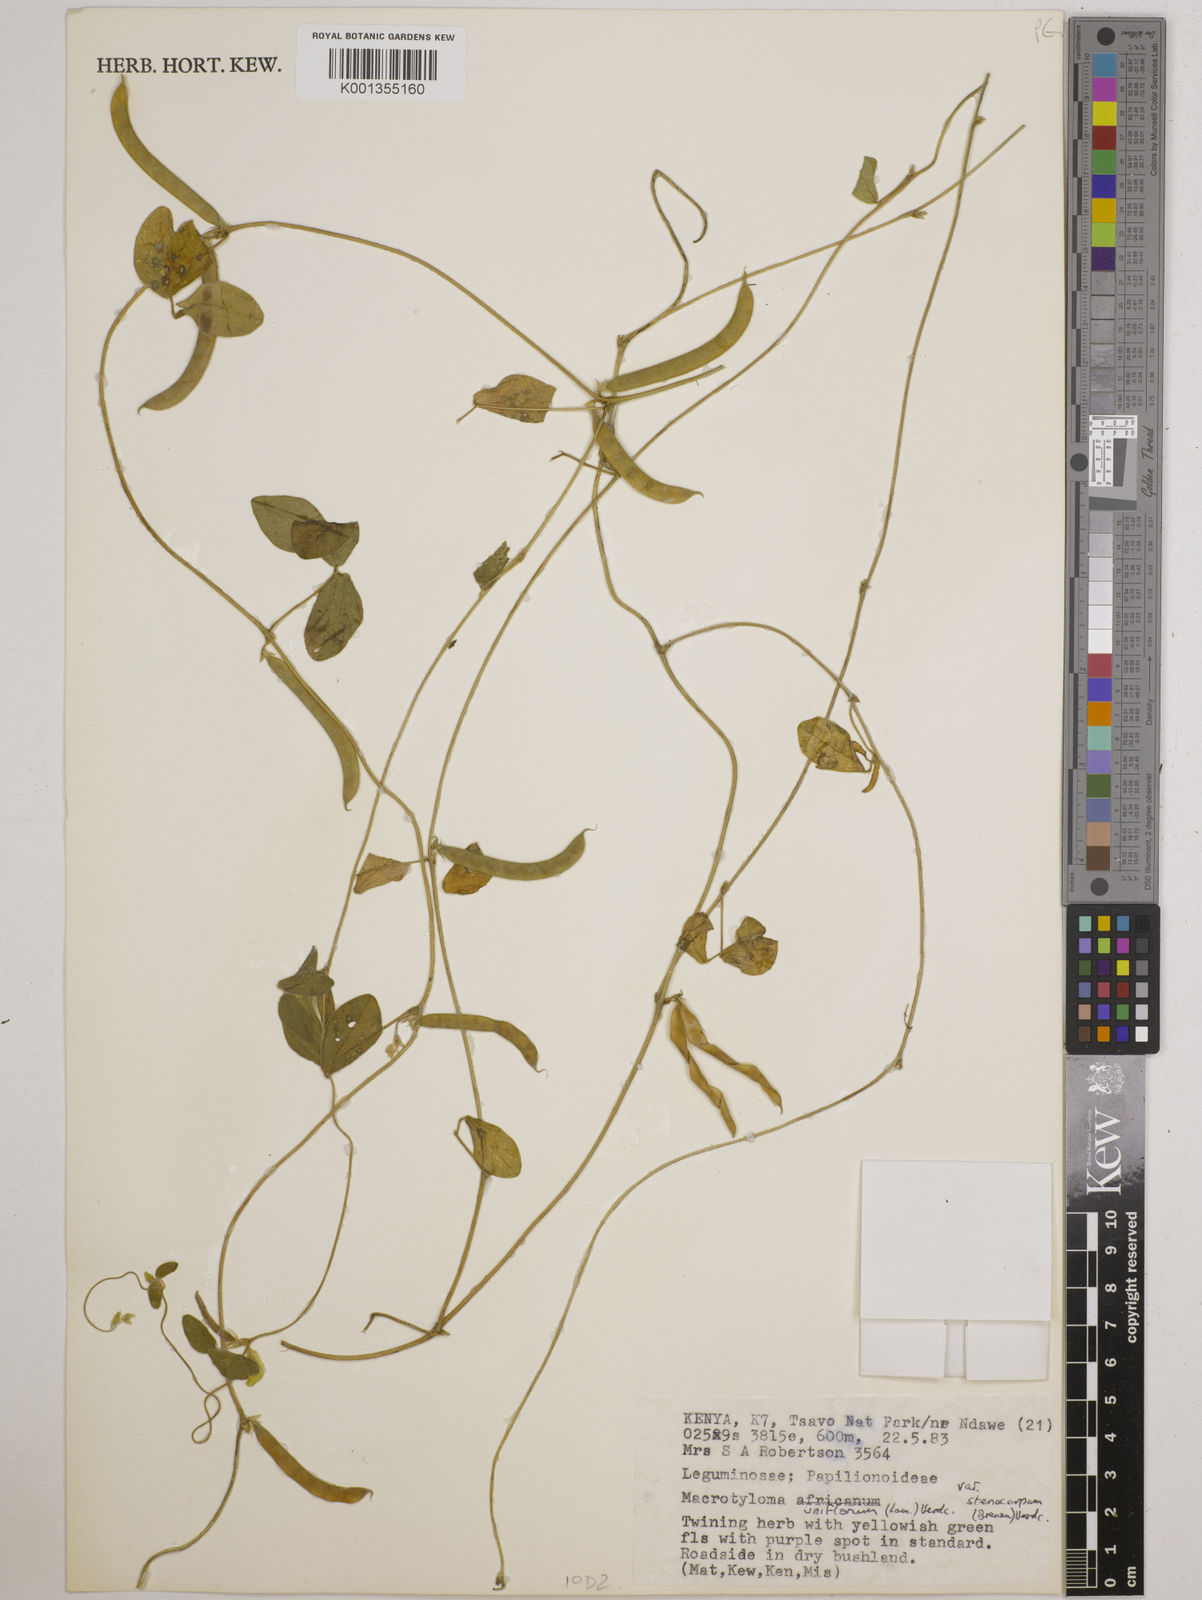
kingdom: Plantae
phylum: Tracheophyta
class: Magnoliopsida
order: Fabales
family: Fabaceae
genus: Macrotyloma
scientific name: Macrotyloma
